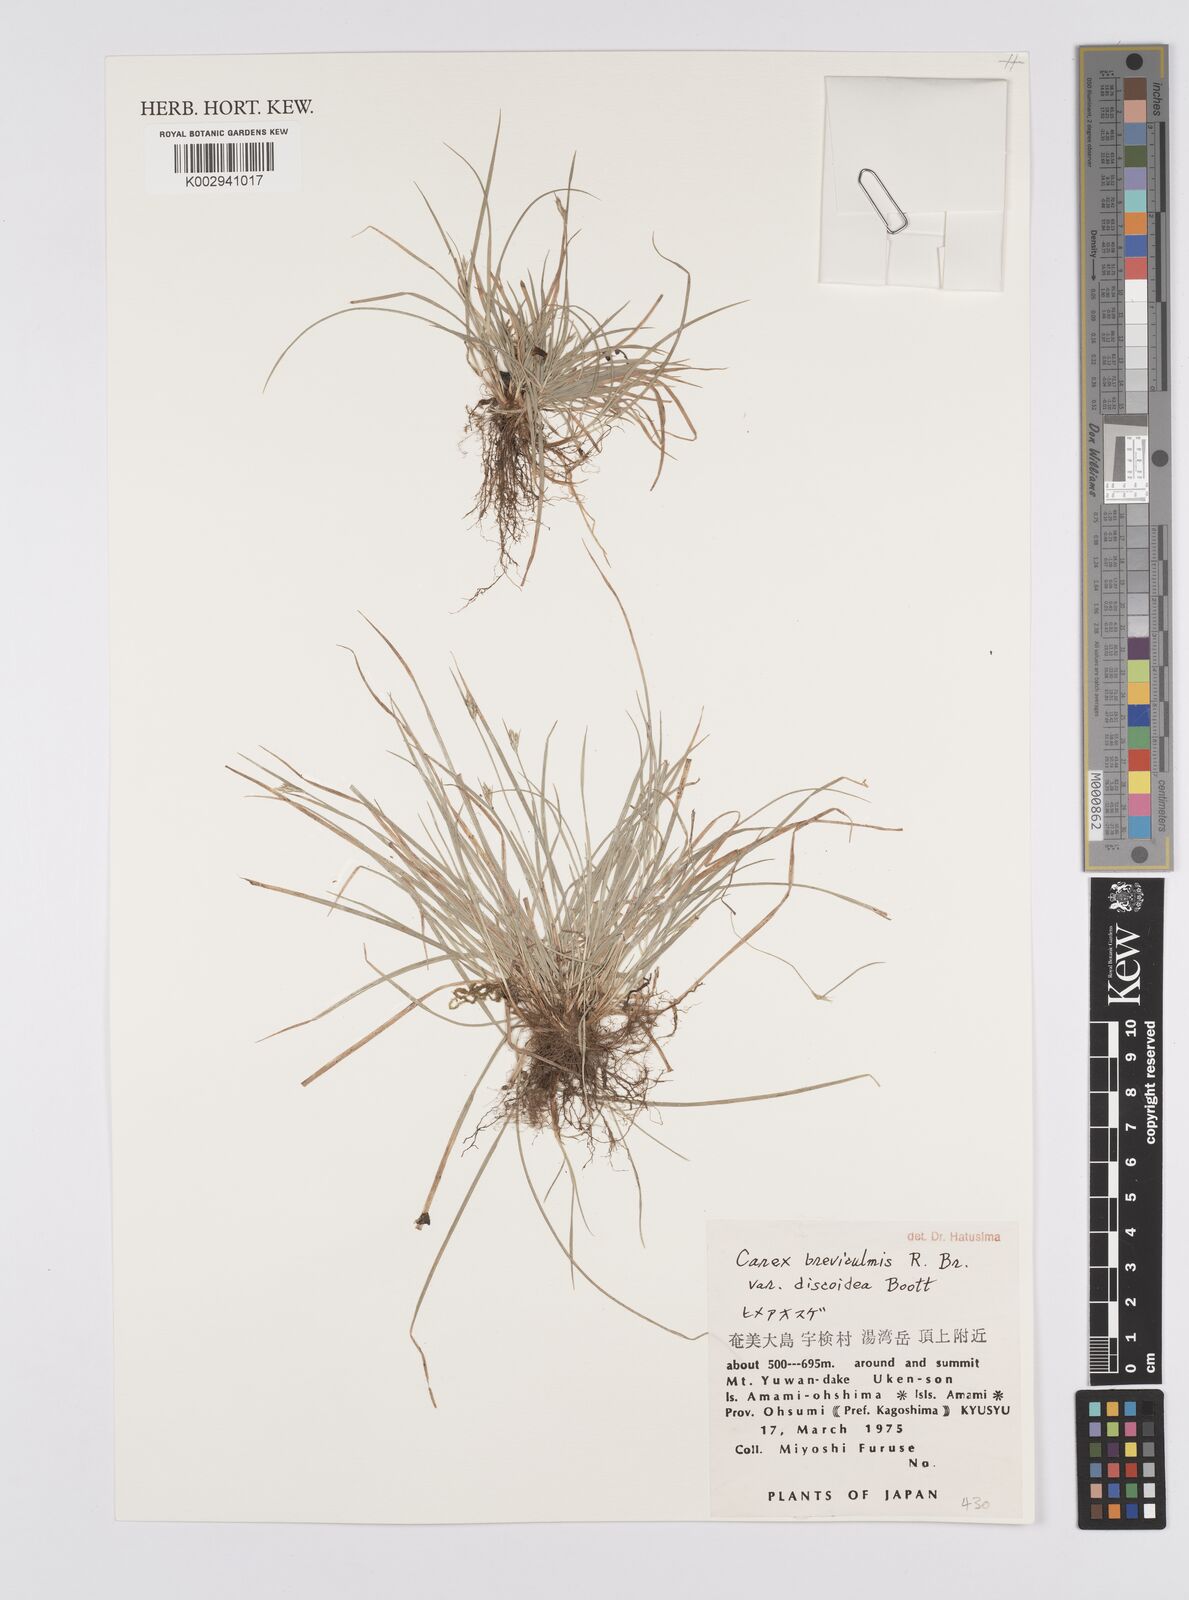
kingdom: Plantae
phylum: Tracheophyta
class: Liliopsida
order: Poales
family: Cyperaceae
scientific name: Cyperaceae
